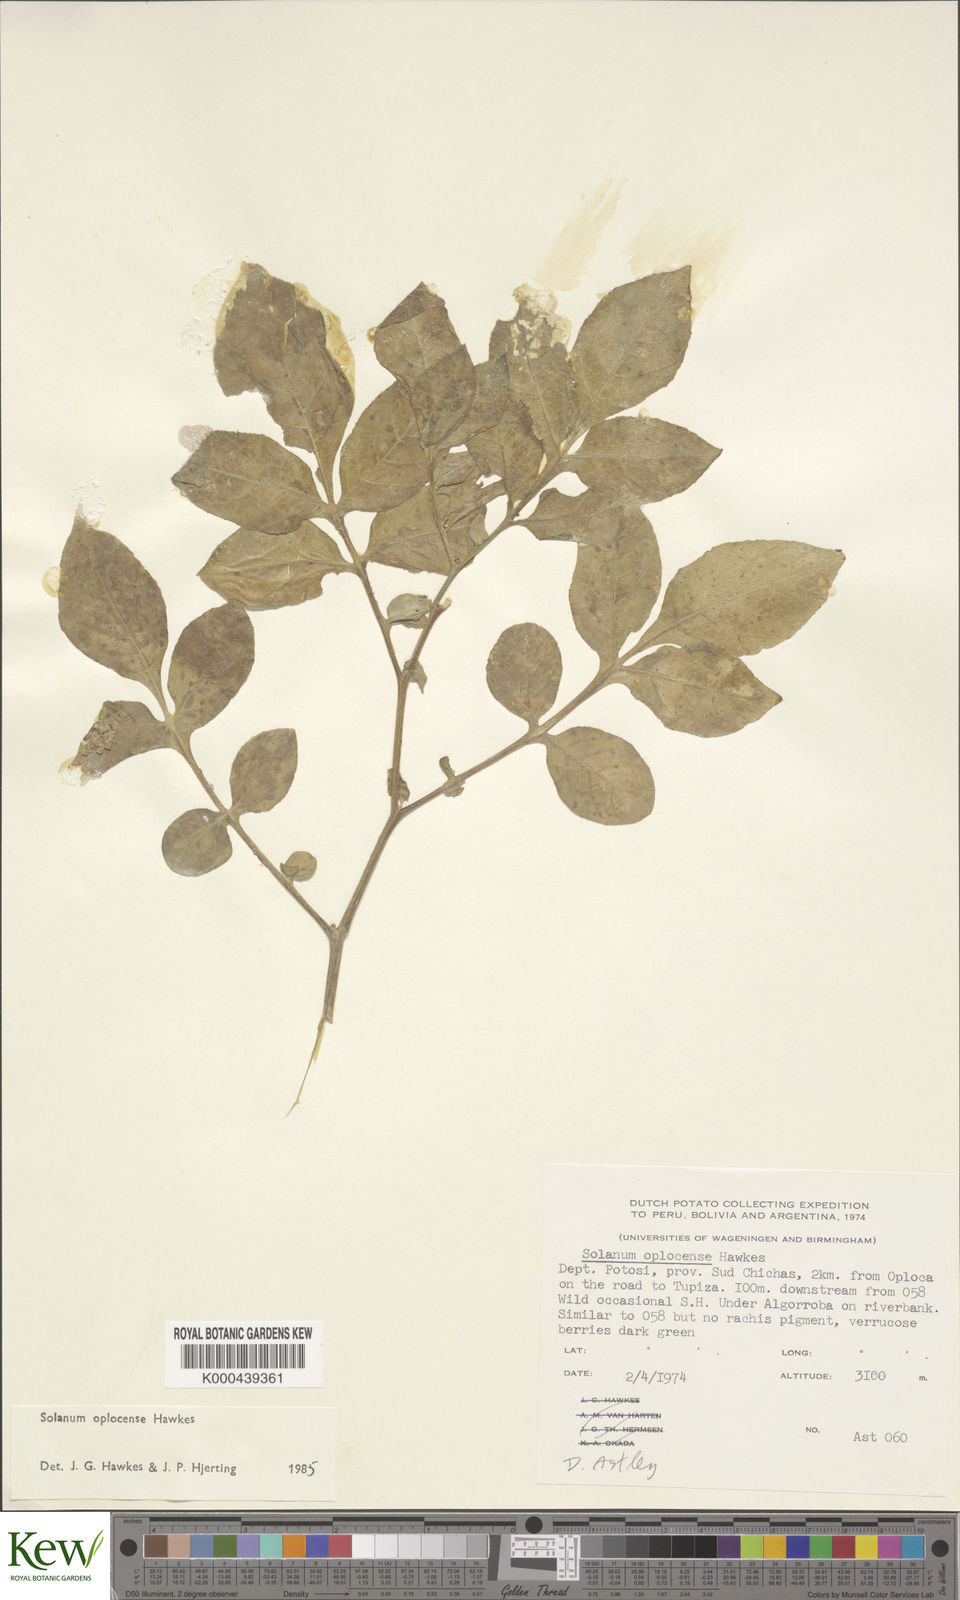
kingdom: Plantae
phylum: Tracheophyta
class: Magnoliopsida
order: Solanales
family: Solanaceae
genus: Solanum
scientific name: Solanum brevicaule
